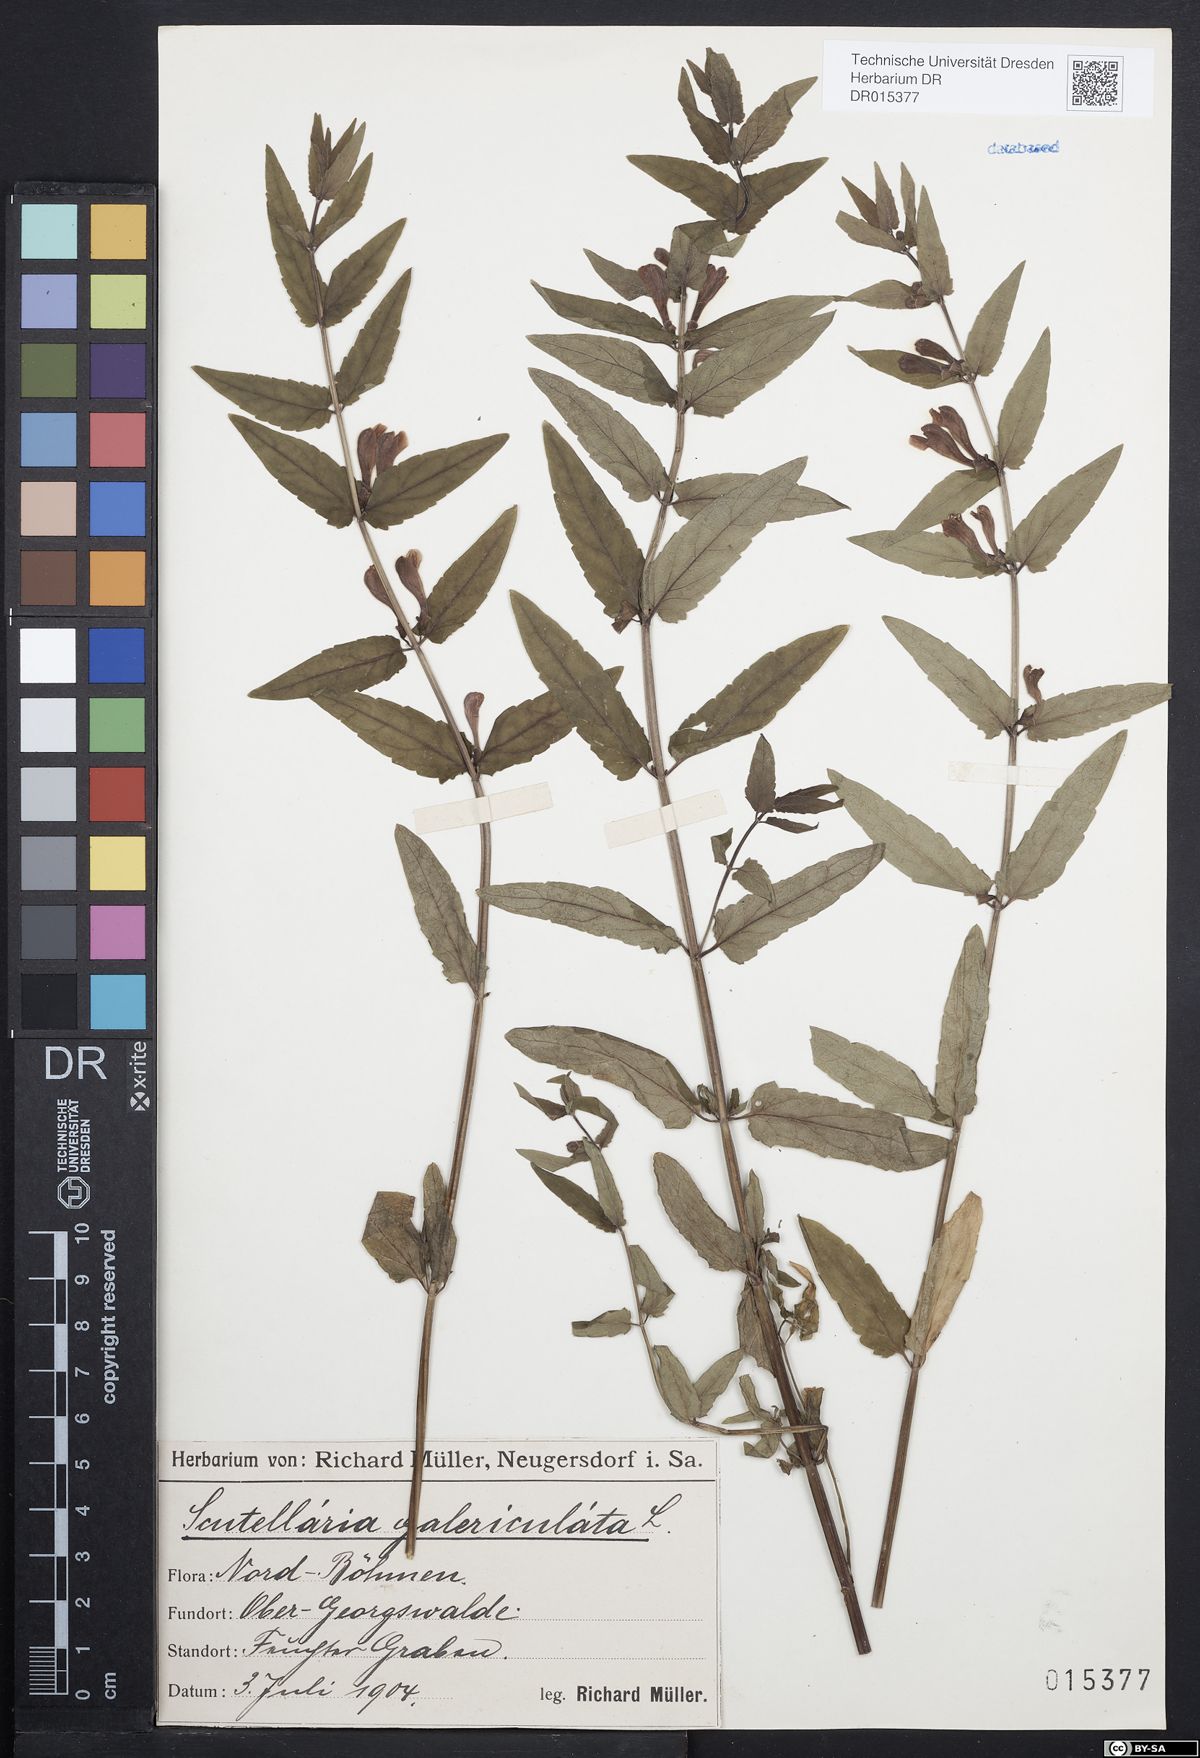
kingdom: Plantae
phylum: Tracheophyta
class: Magnoliopsida
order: Lamiales
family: Lamiaceae
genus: Scutellaria
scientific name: Scutellaria galericulata
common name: Skullcap
